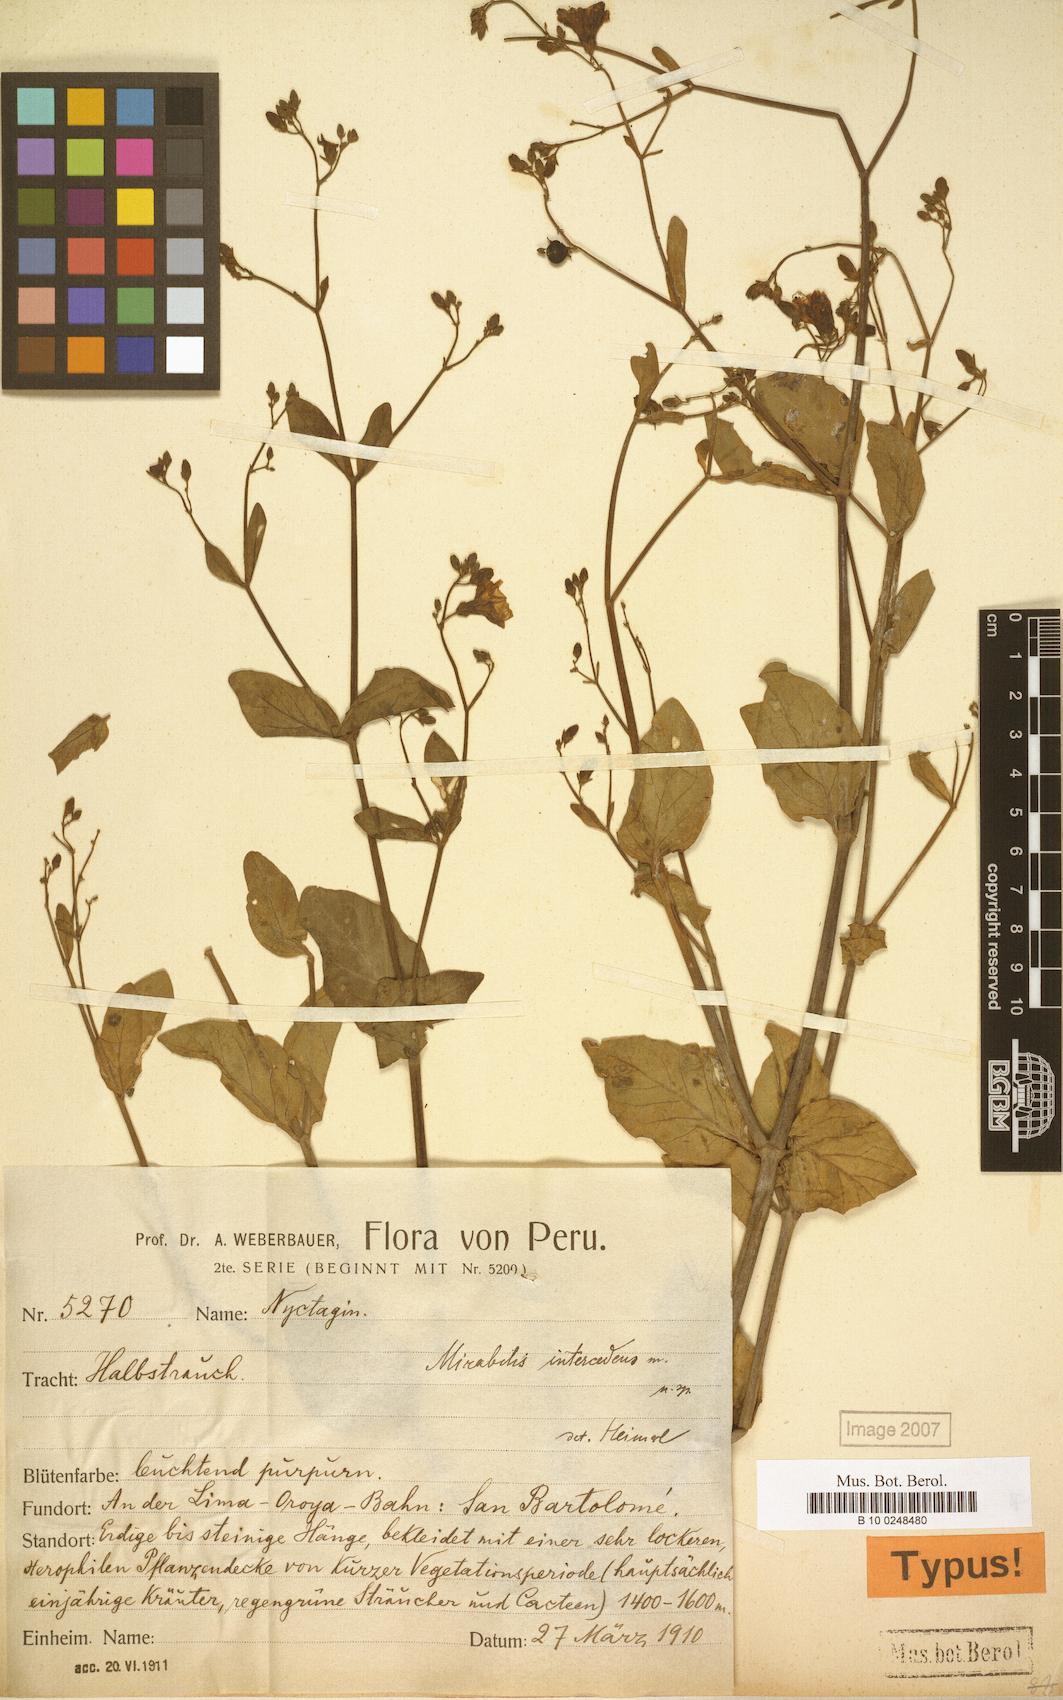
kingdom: Plantae
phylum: Tracheophyta
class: Magnoliopsida
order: Caryophyllales
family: Nyctaginaceae
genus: Mirabilis
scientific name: Mirabilis intercedens
